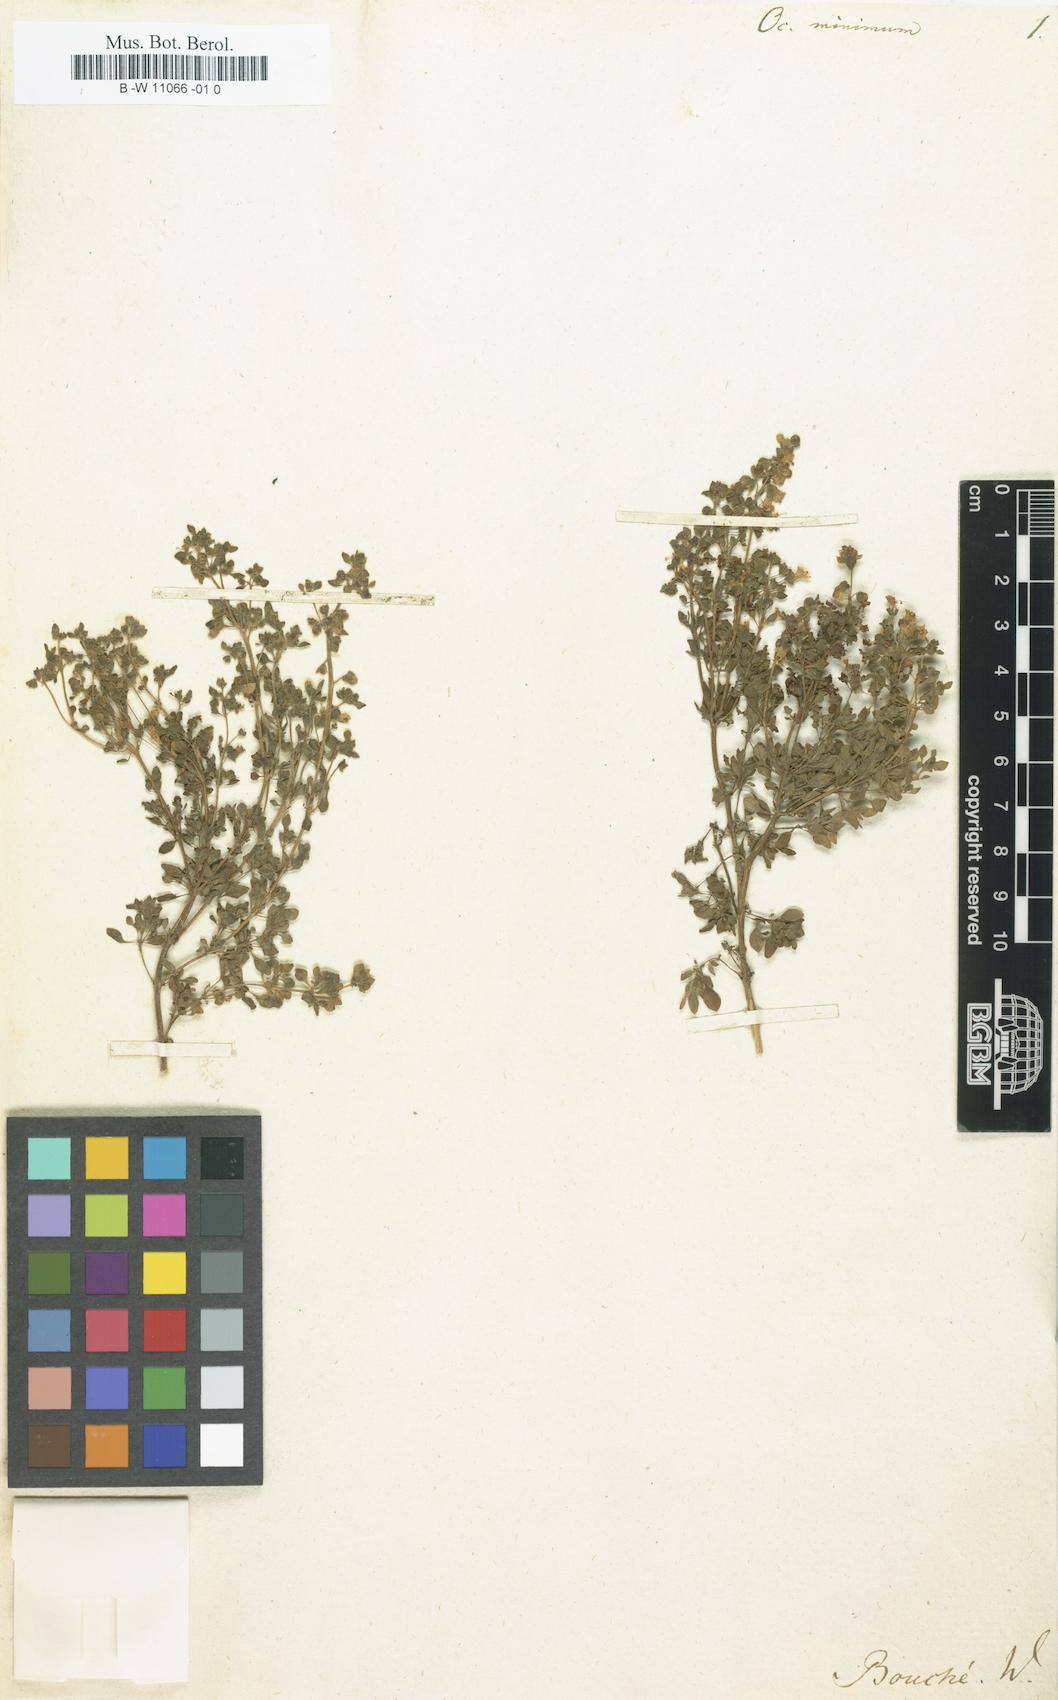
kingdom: Plantae
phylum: Tracheophyta
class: Magnoliopsida
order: Lamiales
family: Lamiaceae
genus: Ocimum
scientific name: Ocimum basilicum
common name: Sweet basil
